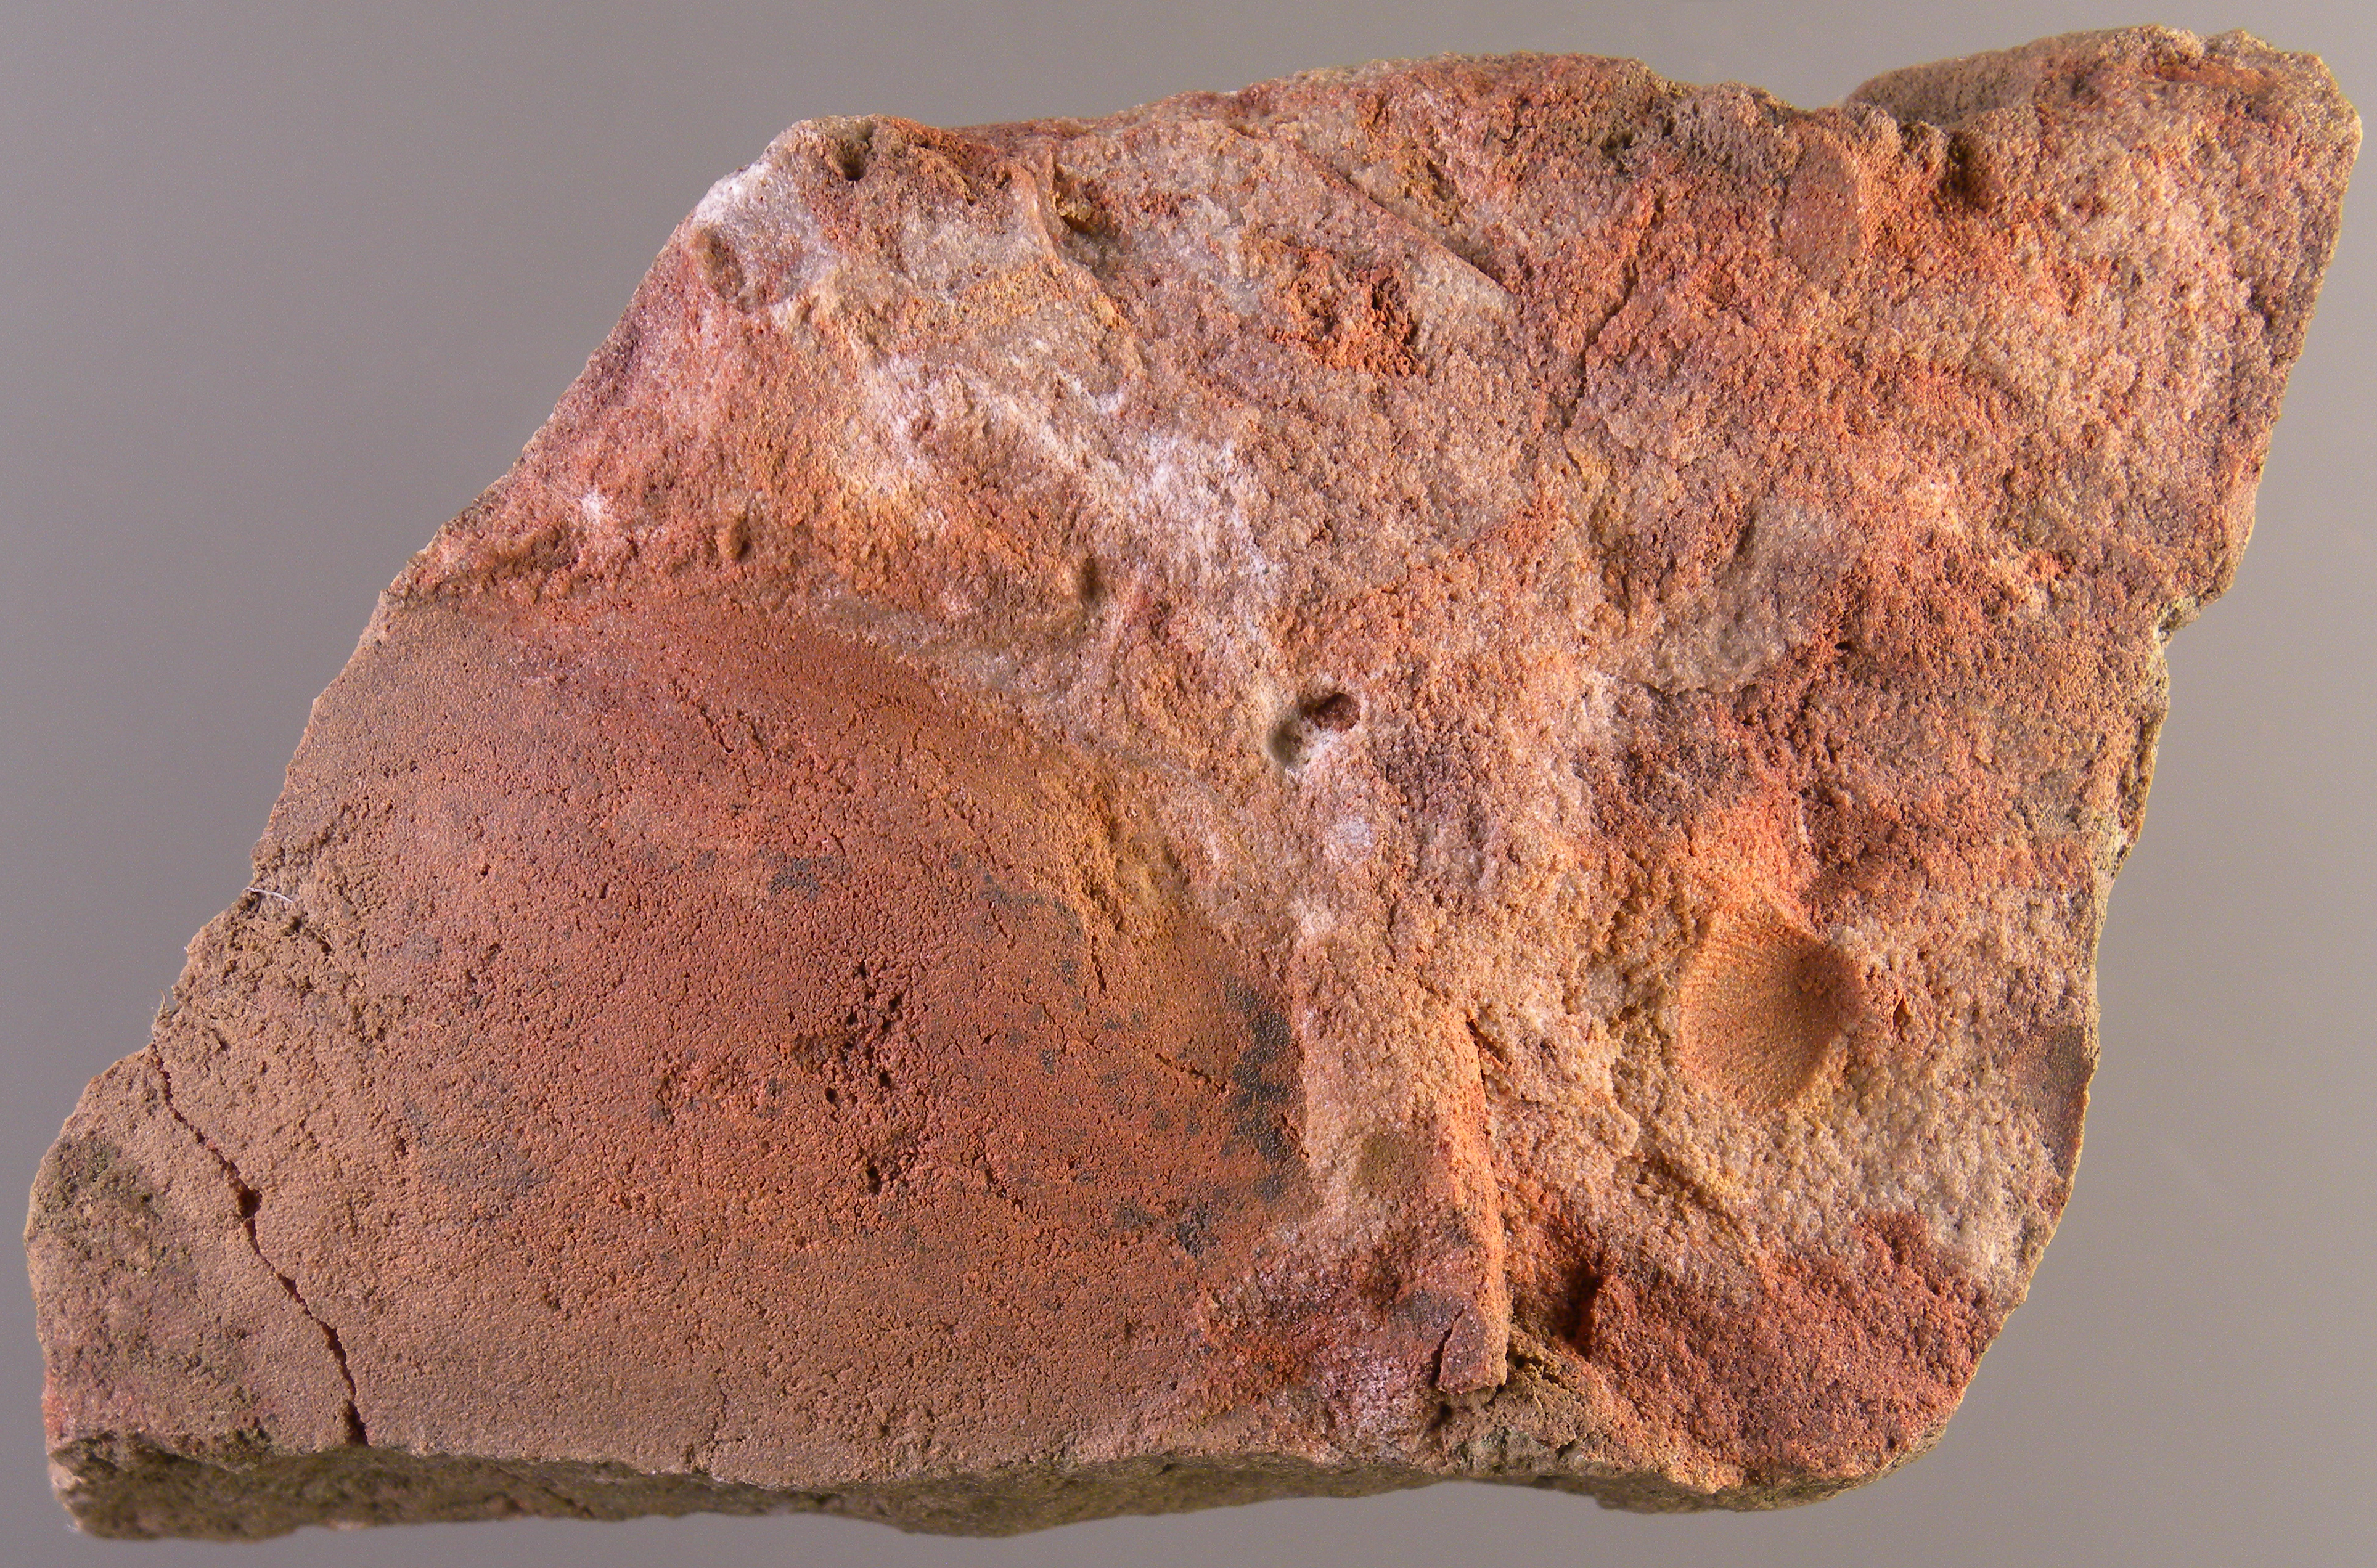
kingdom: Animalia
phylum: Mollusca
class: Bivalvia
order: Trigoniida
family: Myophoriidae
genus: Toechomya
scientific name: Toechomya
